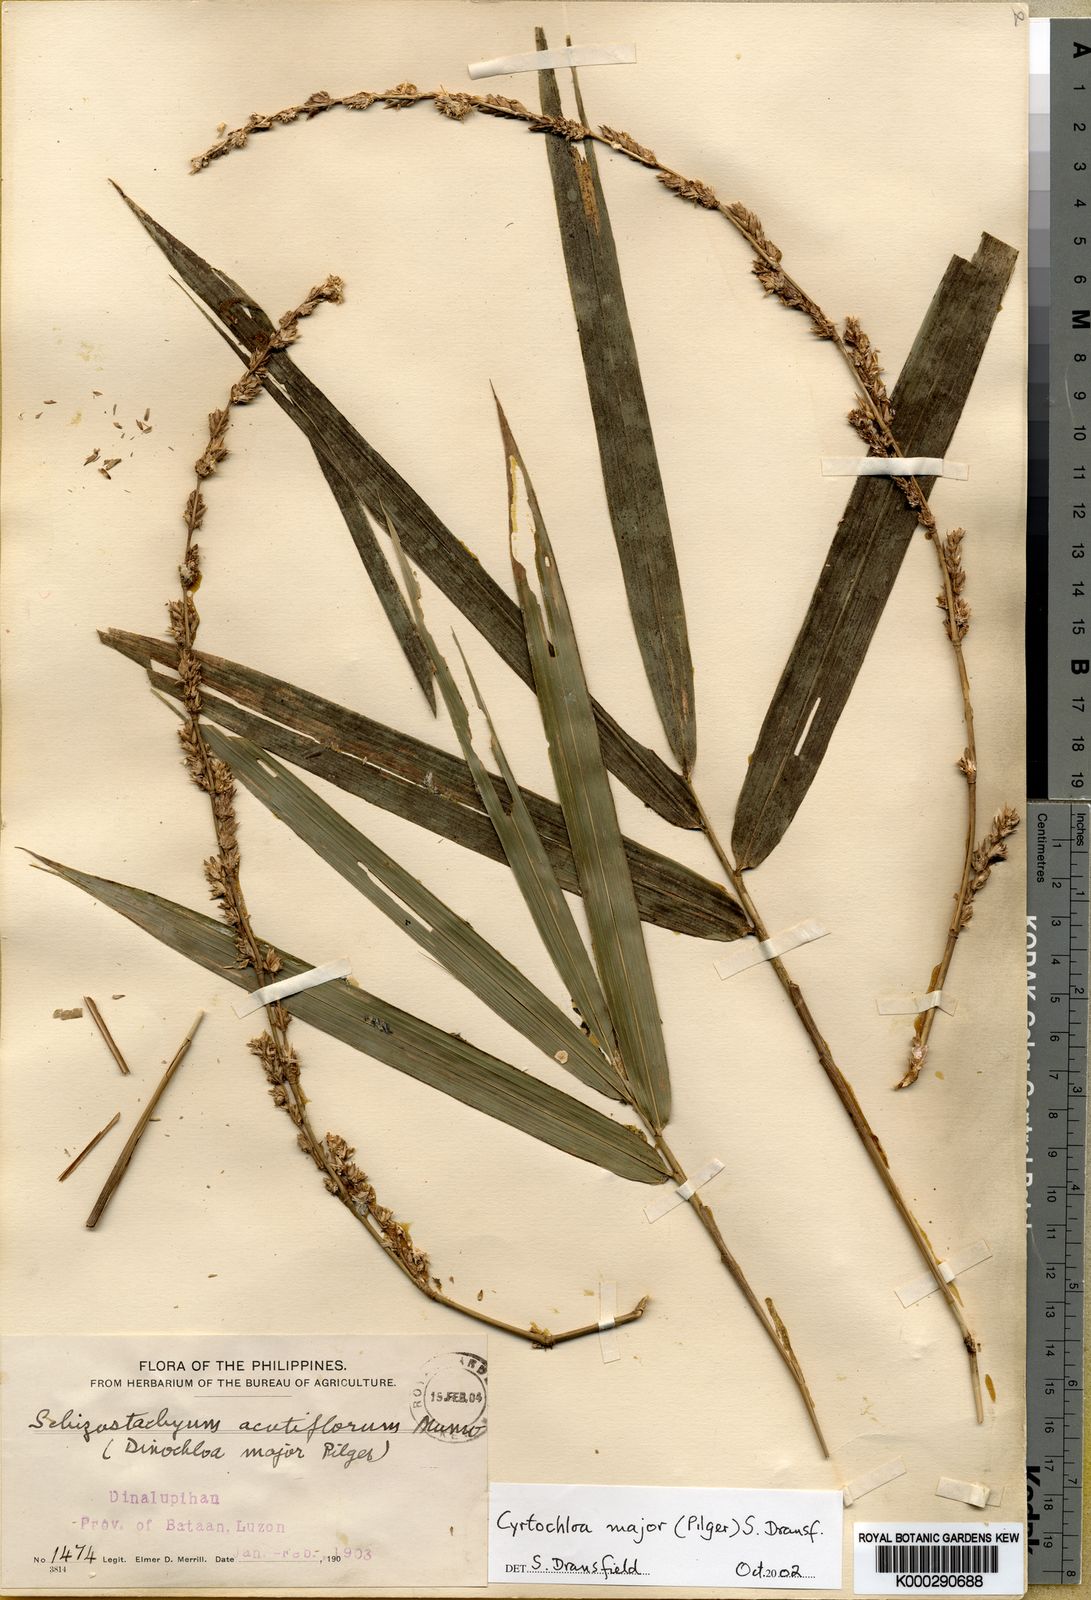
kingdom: Plantae
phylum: Tracheophyta
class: Liliopsida
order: Poales
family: Poaceae
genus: Cyrtochloa
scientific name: Cyrtochloa major
